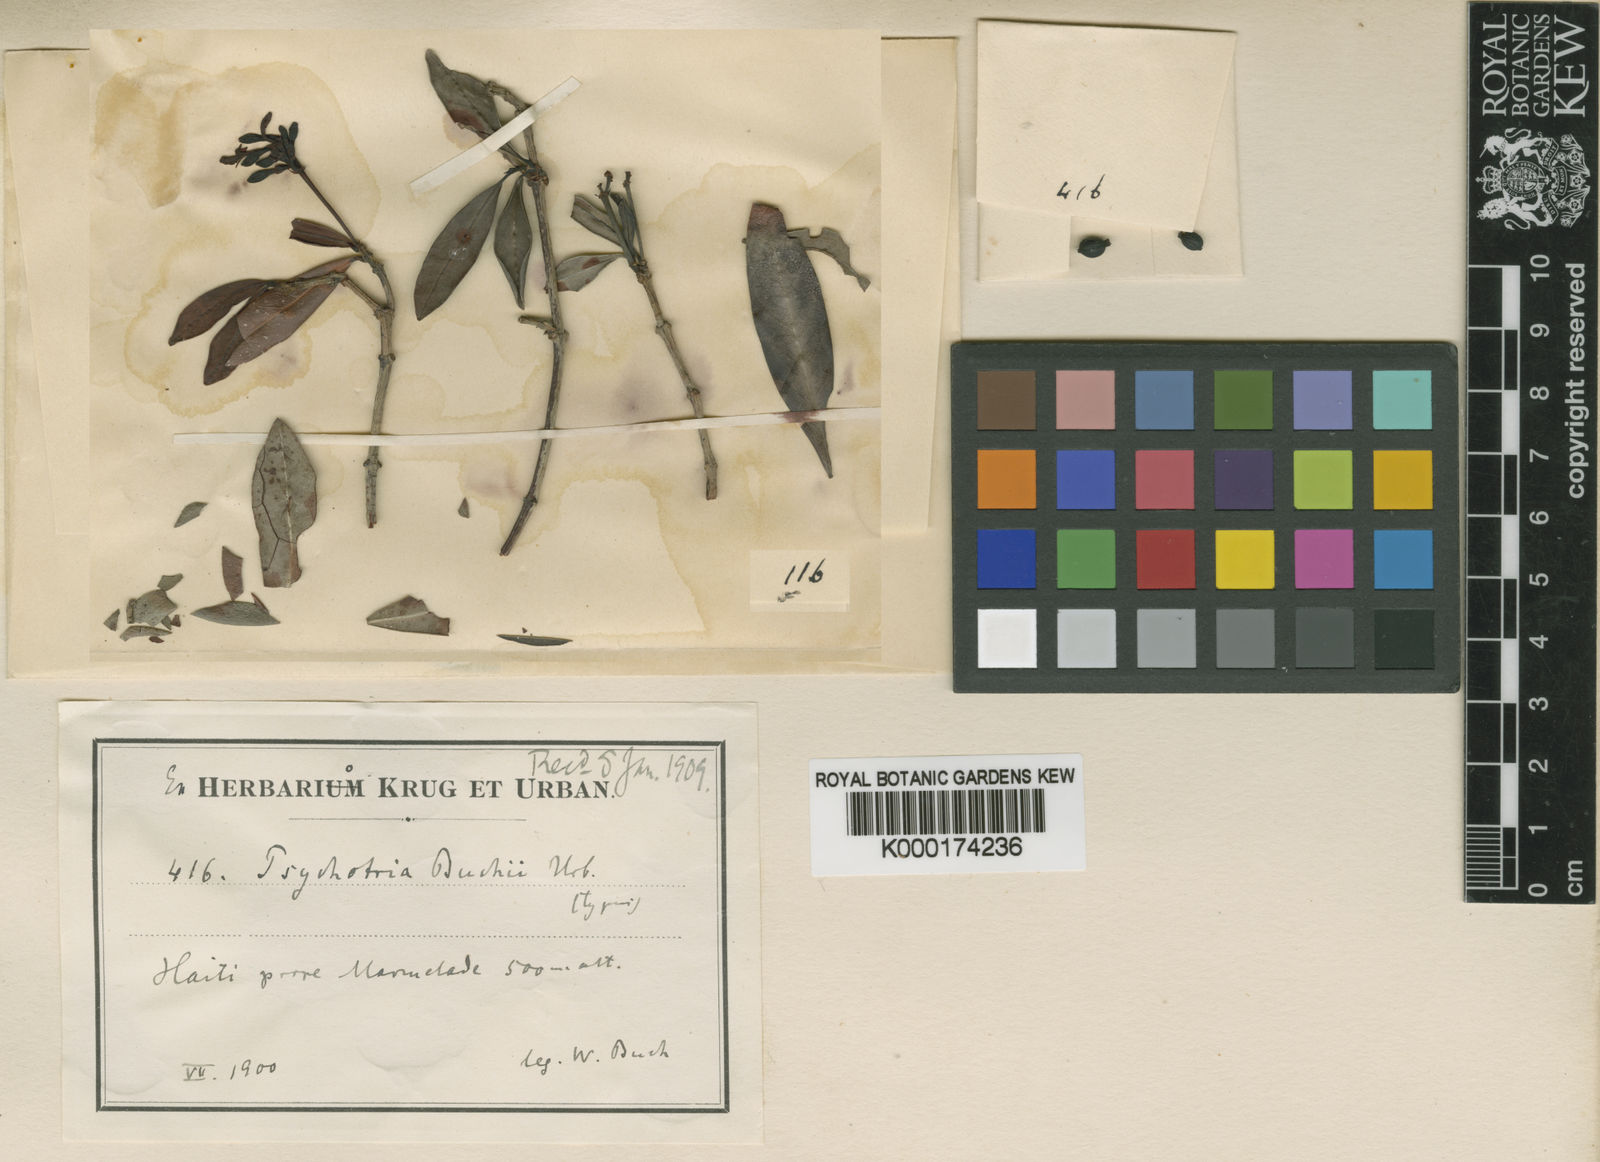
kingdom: Plantae
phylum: Tracheophyta
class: Magnoliopsida
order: Gentianales
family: Rubiaceae
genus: Psychotria
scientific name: Psychotria buchii
